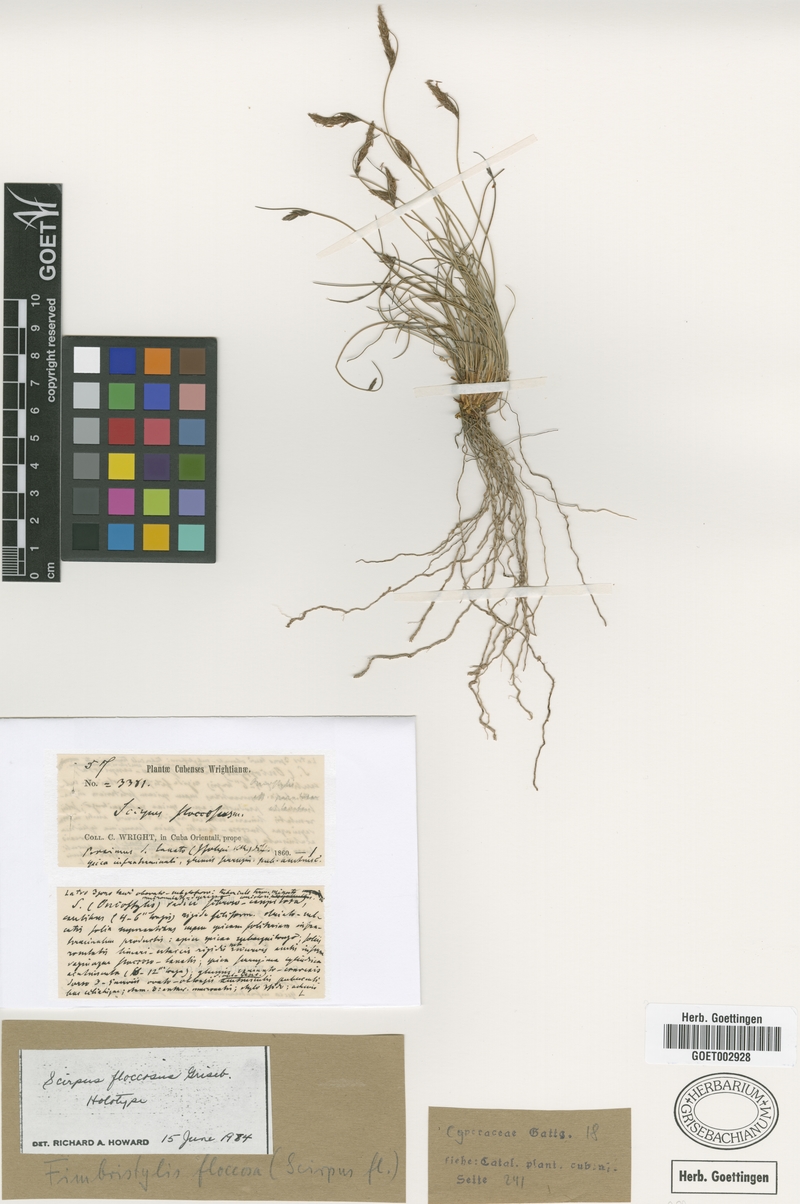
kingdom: Plantae
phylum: Tracheophyta
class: Liliopsida
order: Poales
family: Cyperaceae
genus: Bulbostylis
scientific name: Bulbostylis floccosa
